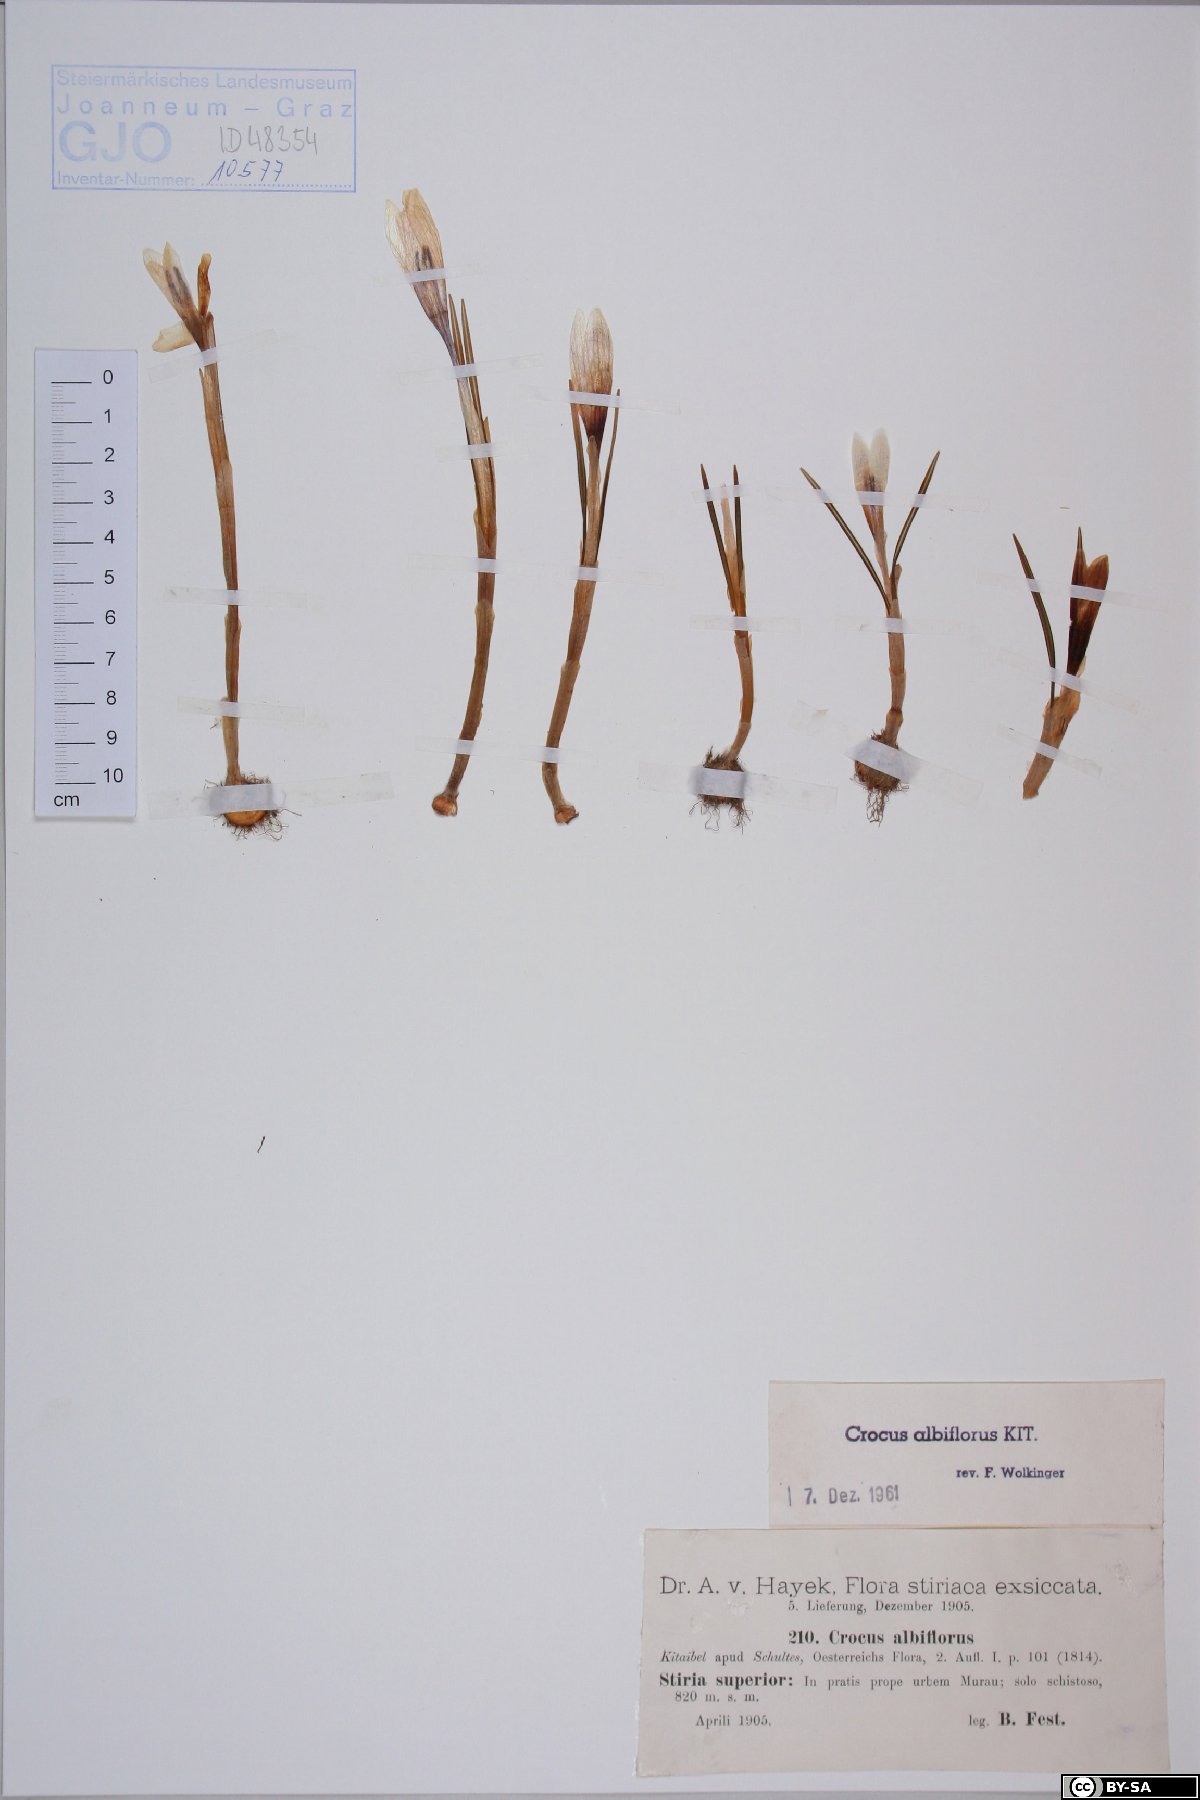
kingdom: Plantae
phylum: Tracheophyta
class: Liliopsida
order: Asparagales
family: Iridaceae
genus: Crocus
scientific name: Crocus vernus
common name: Spring crocus
